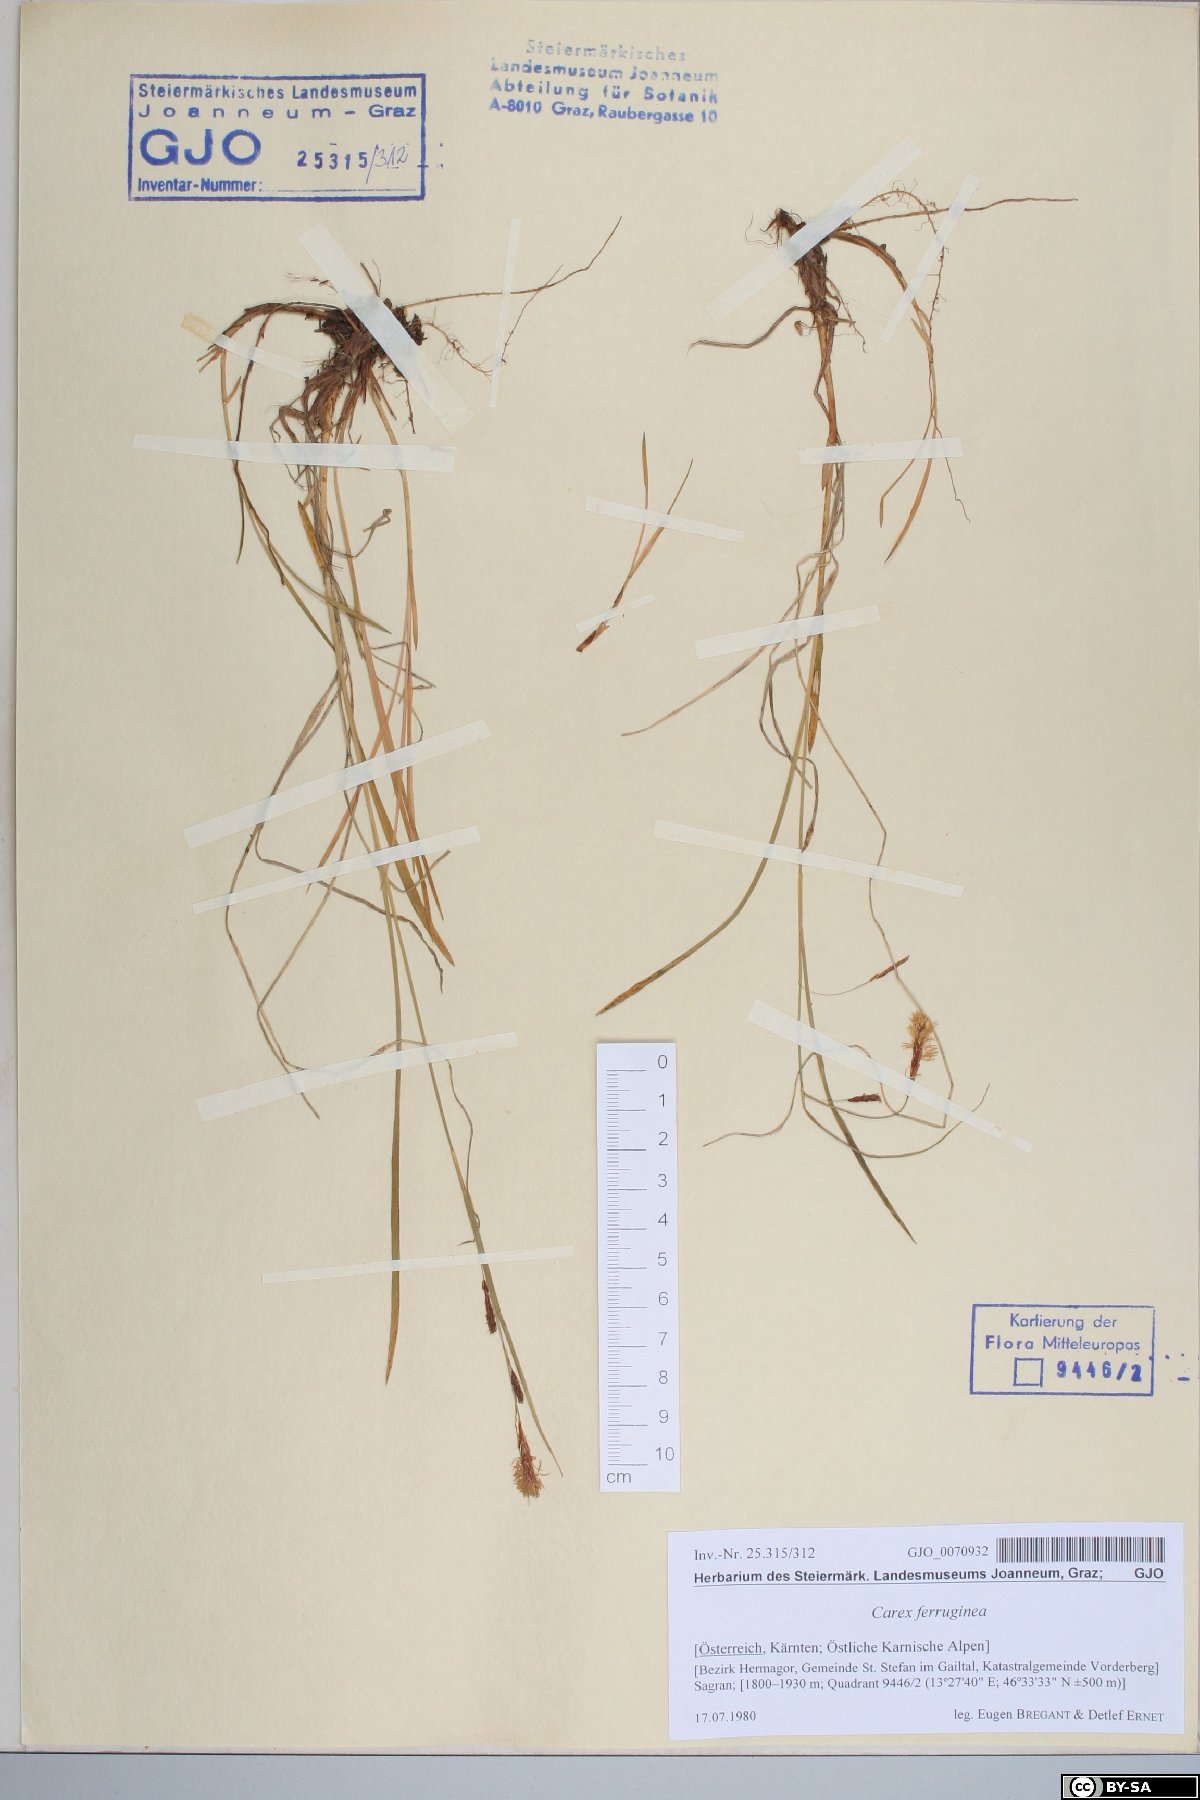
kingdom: Plantae
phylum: Tracheophyta
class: Liliopsida
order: Poales
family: Cyperaceae
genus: Carex
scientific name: Carex ferruginea
